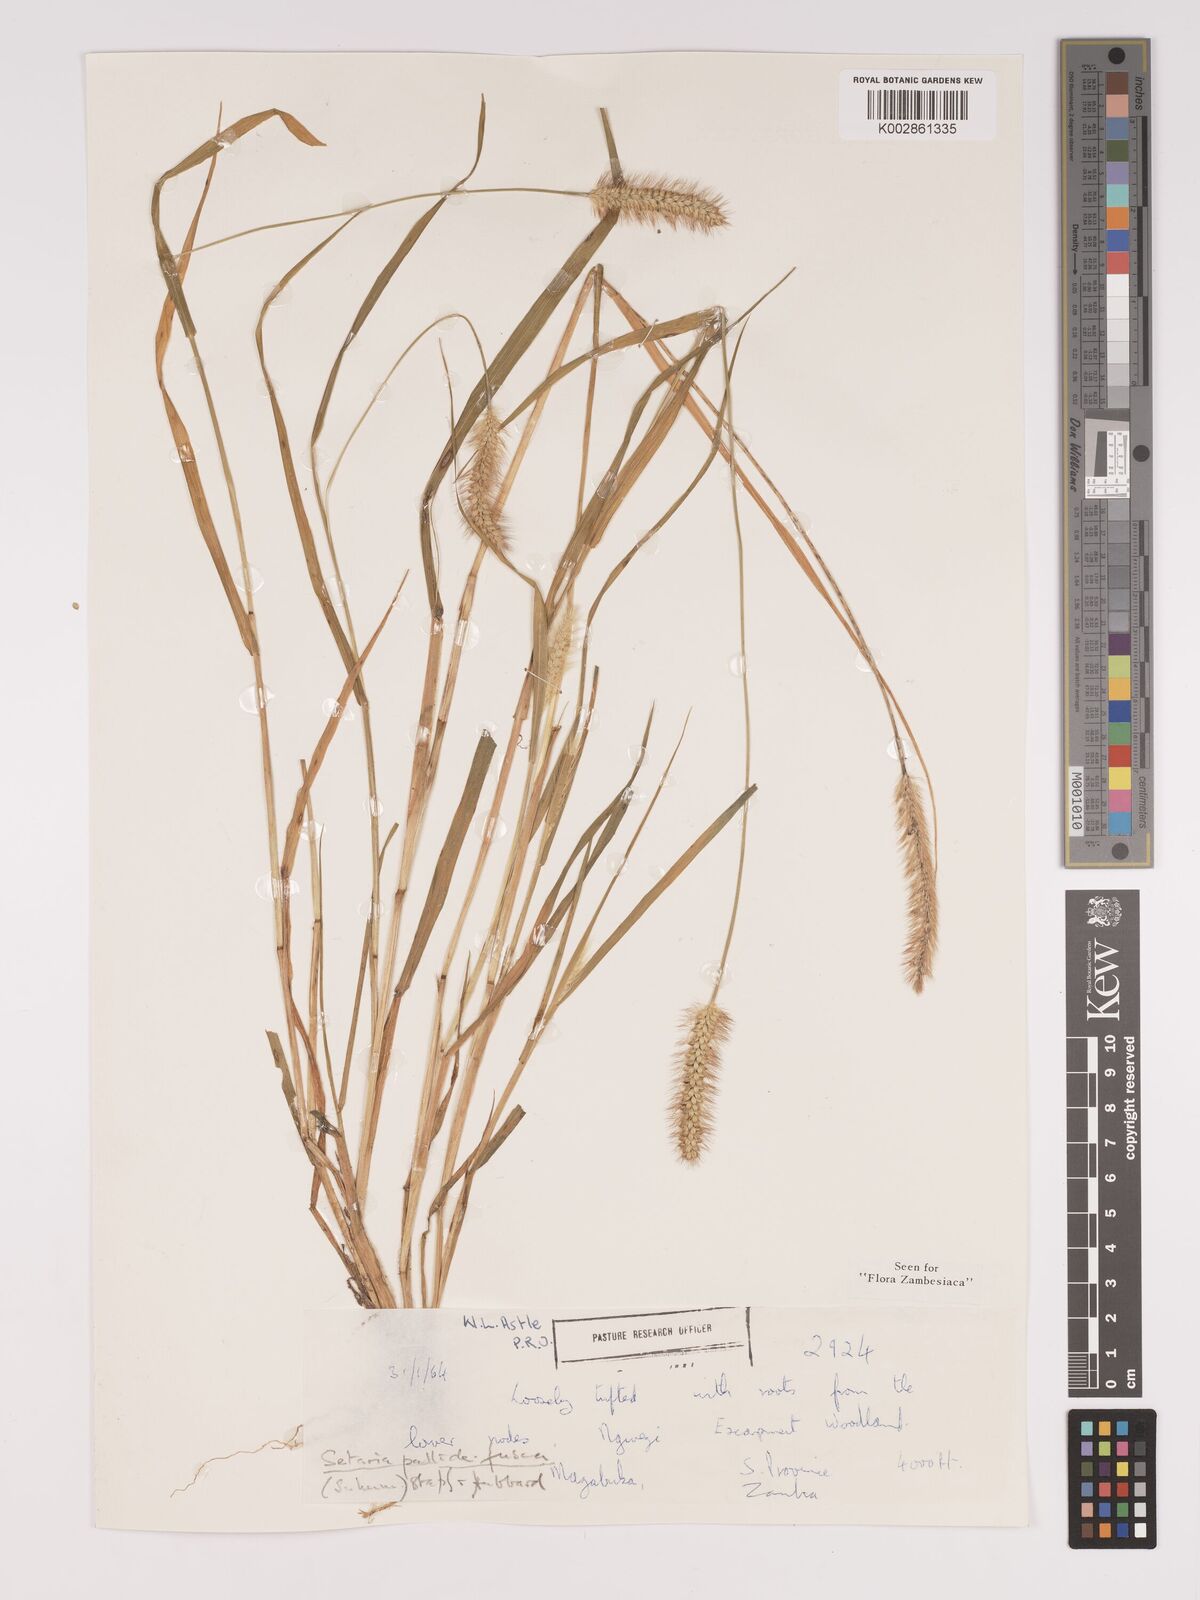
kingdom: Plantae
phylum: Tracheophyta
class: Liliopsida
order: Poales
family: Poaceae
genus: Setaria
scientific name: Setaria pumila
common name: Yellow bristle-grass
